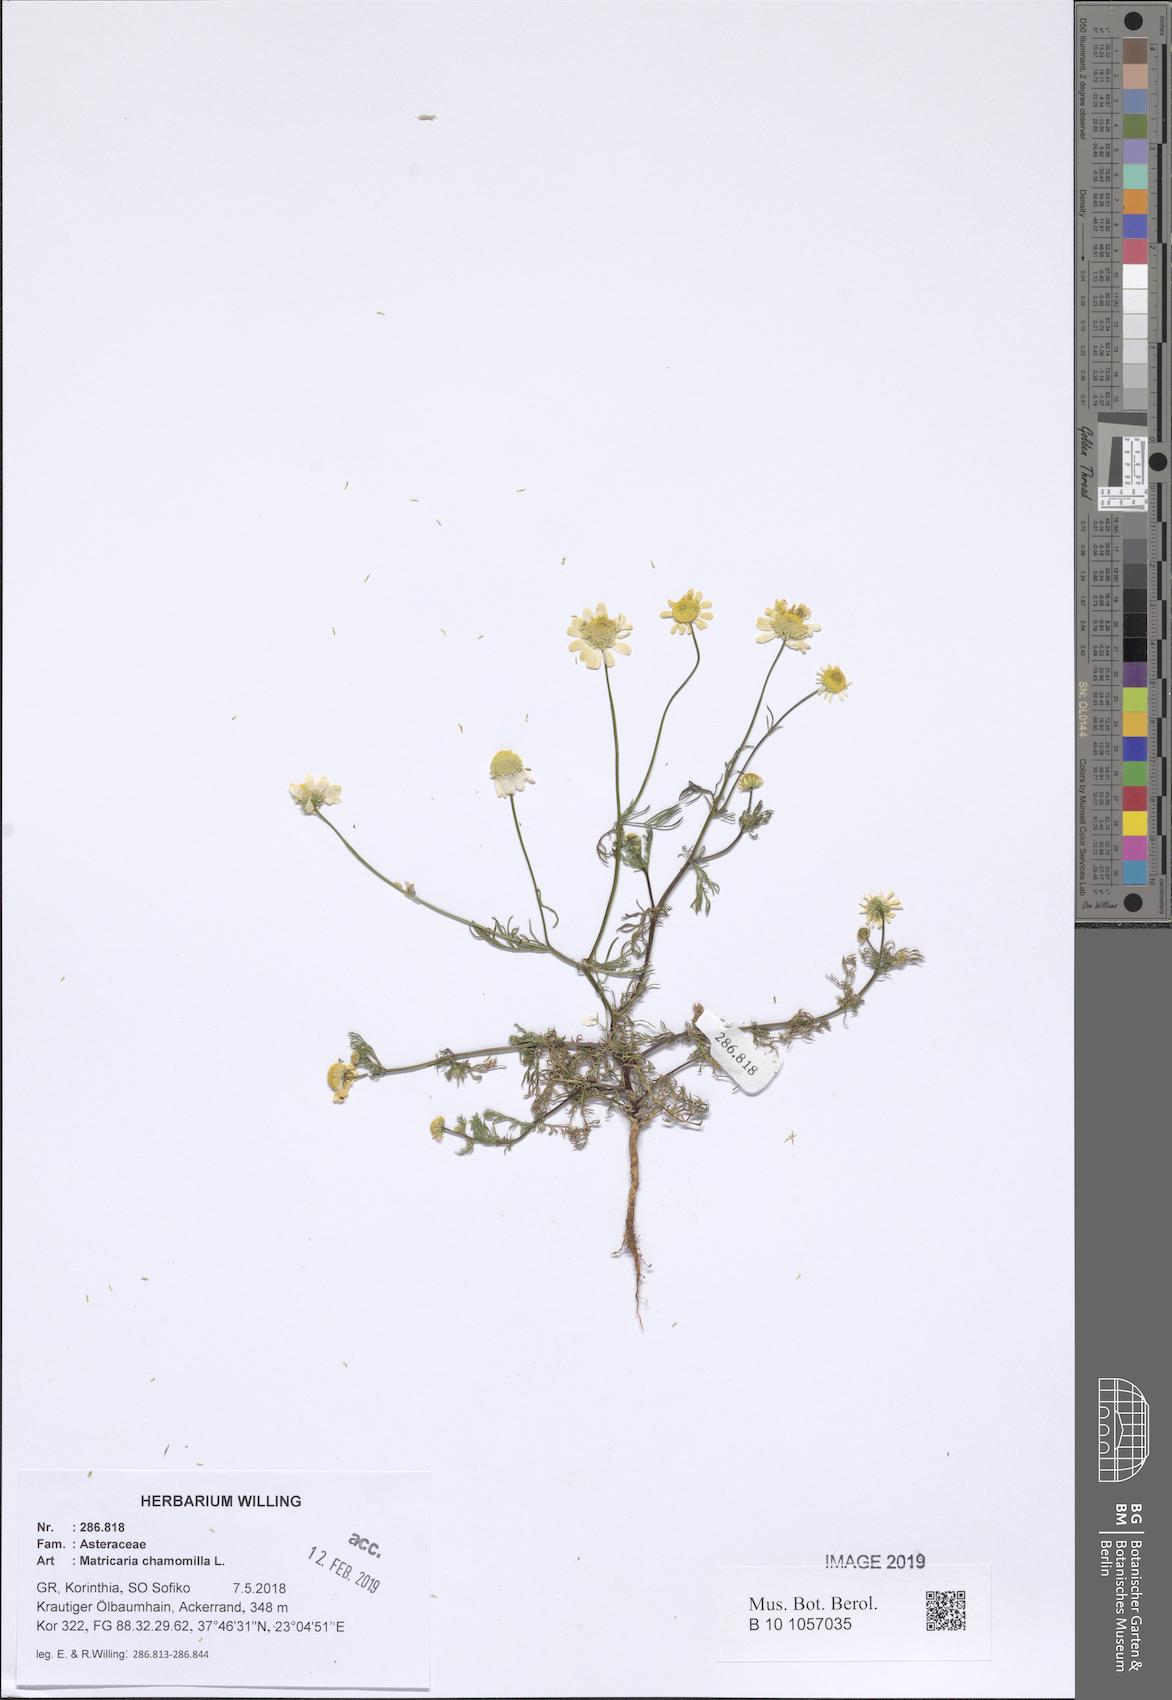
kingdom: Plantae
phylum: Tracheophyta
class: Magnoliopsida
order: Asterales
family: Asteraceae
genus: Matricaria
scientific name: Matricaria chamomilla
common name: Scented mayweed
